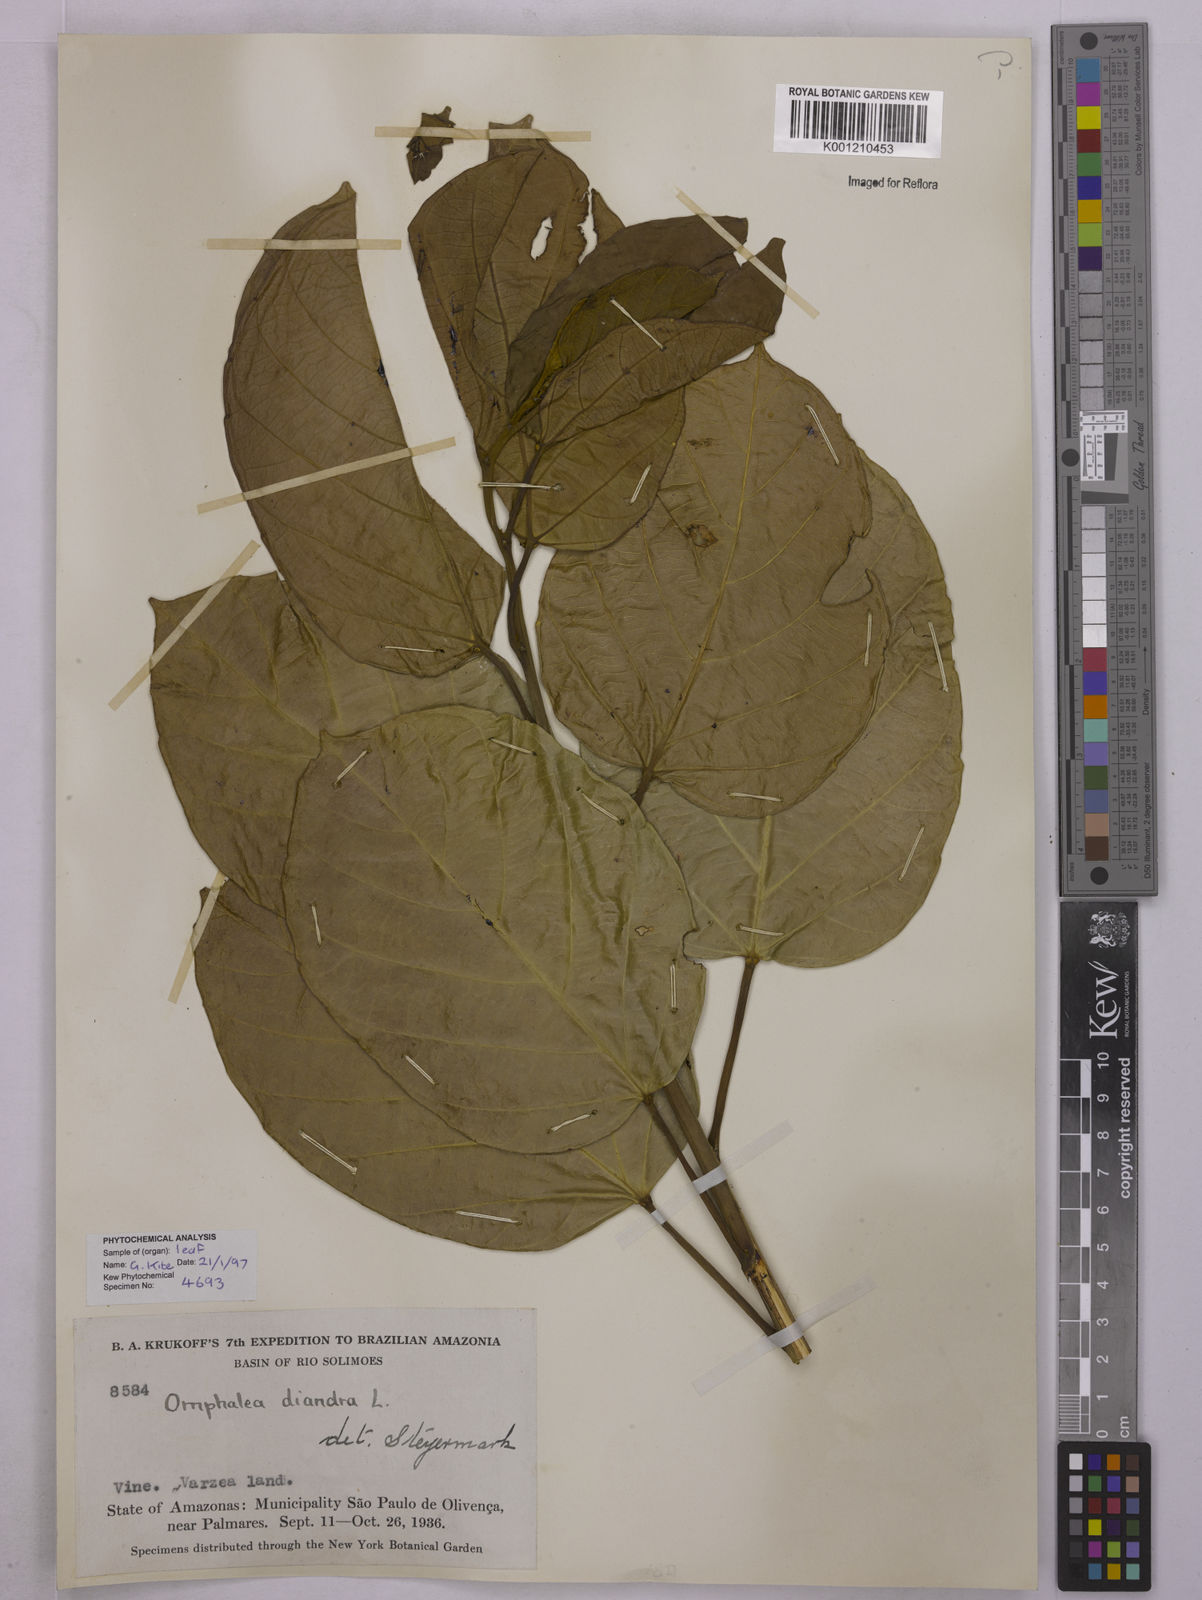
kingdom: Plantae
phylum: Tracheophyta
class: Magnoliopsida
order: Malpighiales
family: Euphorbiaceae
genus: Omphalea
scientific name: Omphalea diandra
